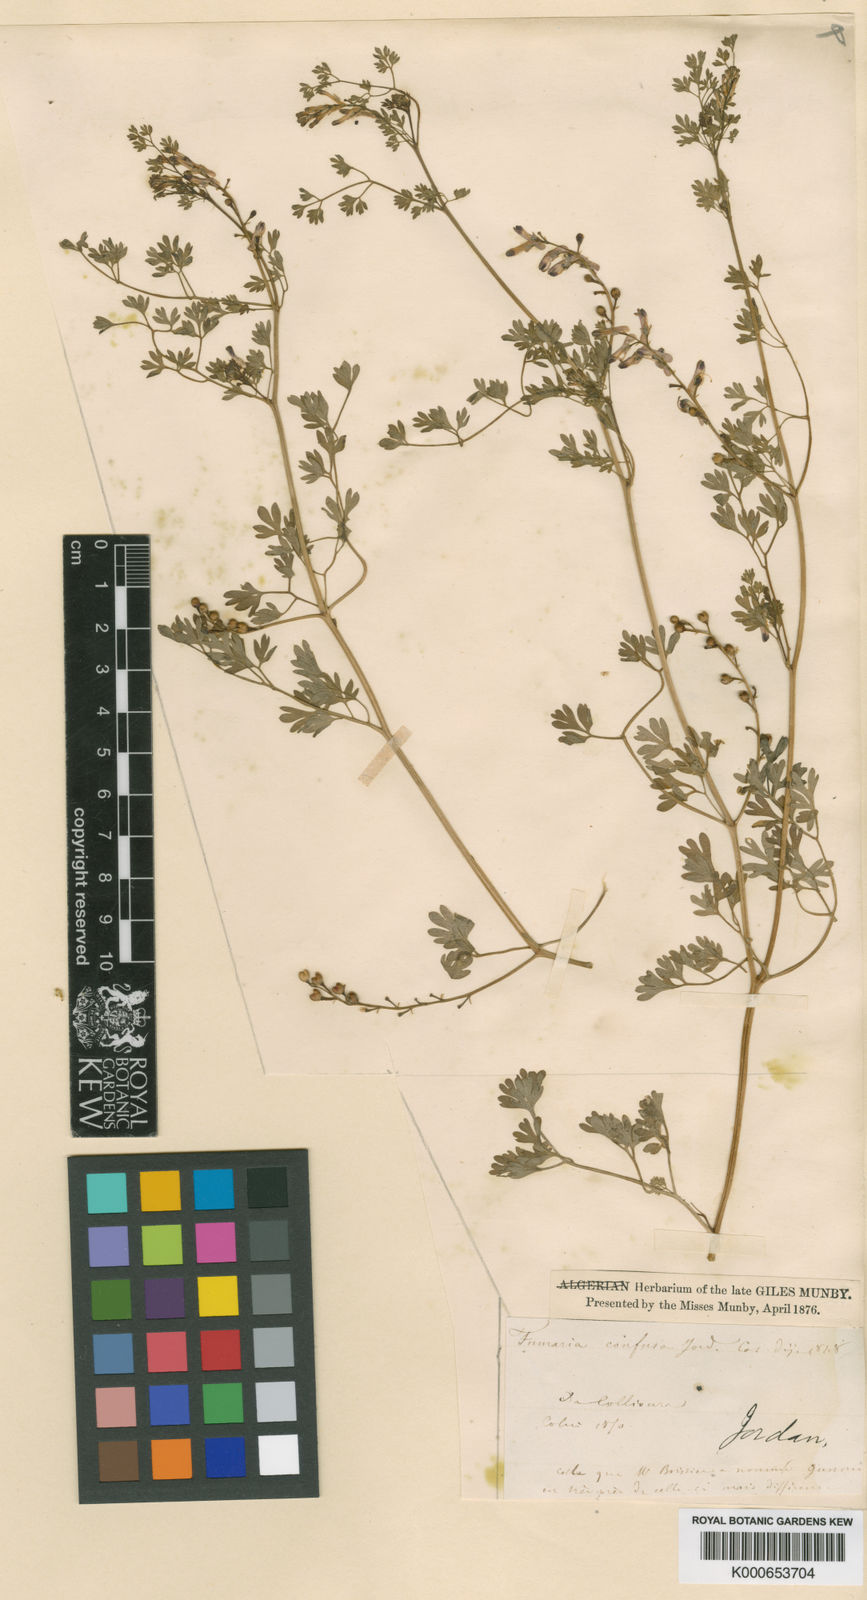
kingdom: Plantae
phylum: Tracheophyta
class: Magnoliopsida
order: Ranunculales
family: Papaveraceae
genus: Fumaria
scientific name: Fumaria bastardii
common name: Tall ramping-fumitory
